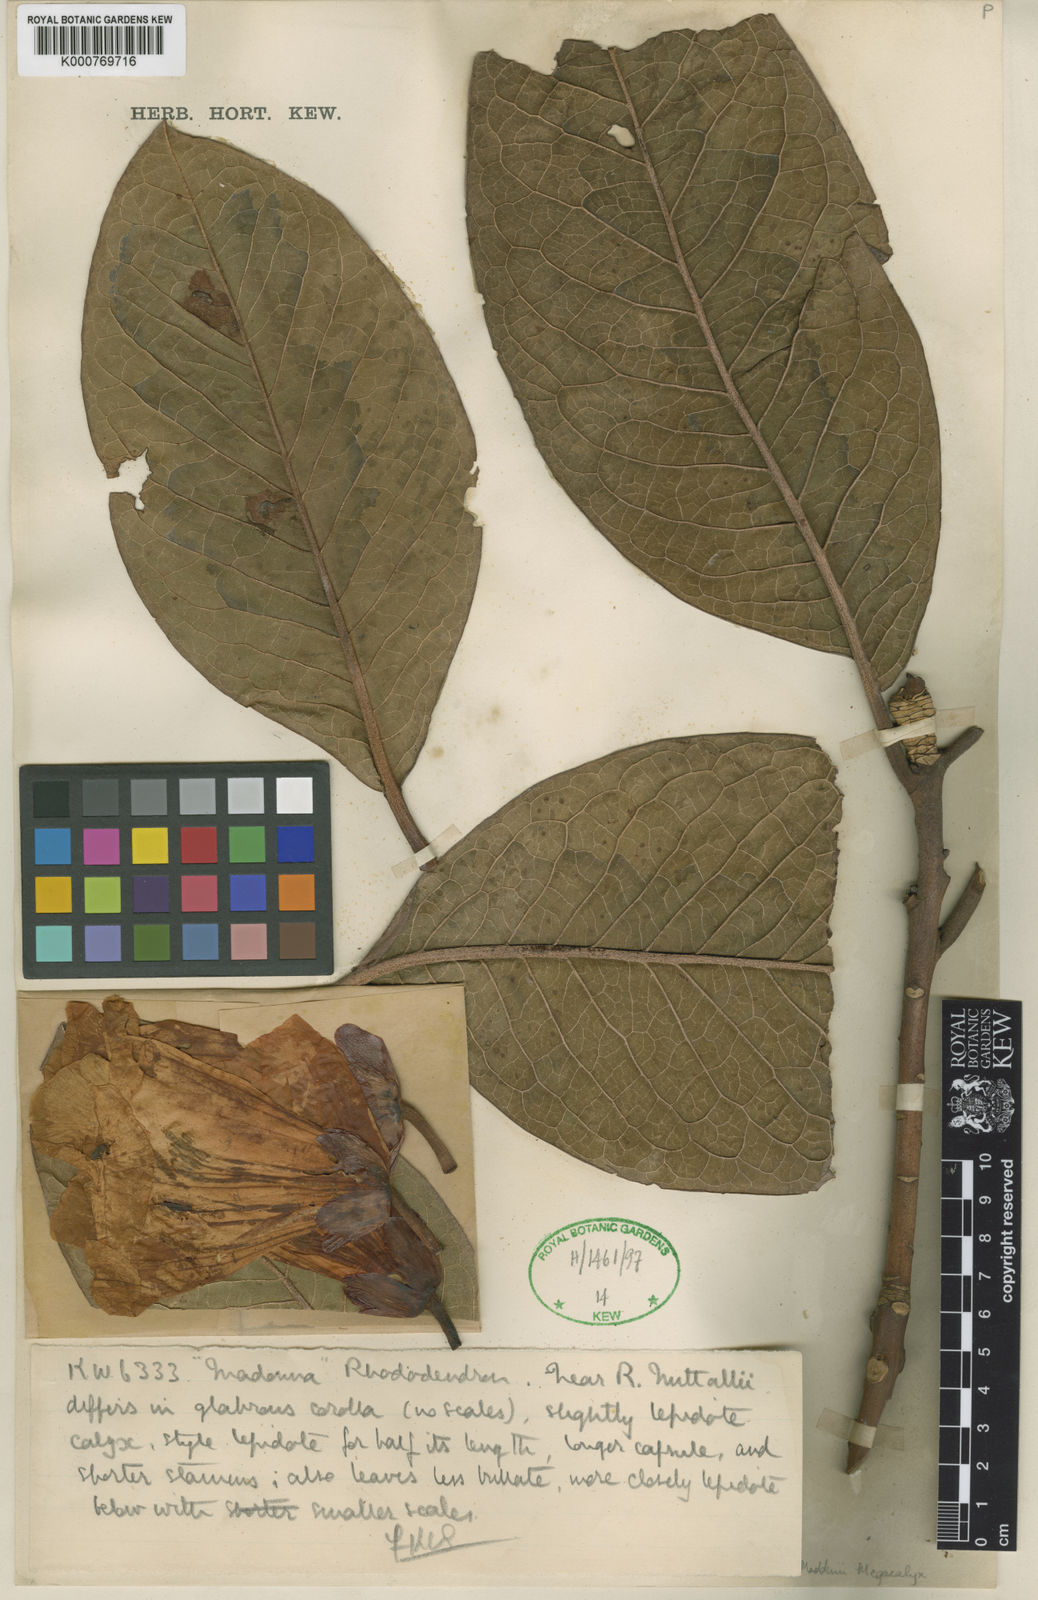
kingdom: Plantae
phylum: Tracheophyta
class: Magnoliopsida
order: Ericales
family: Ericaceae
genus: Rhododendron
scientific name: Rhododendron maddenii
